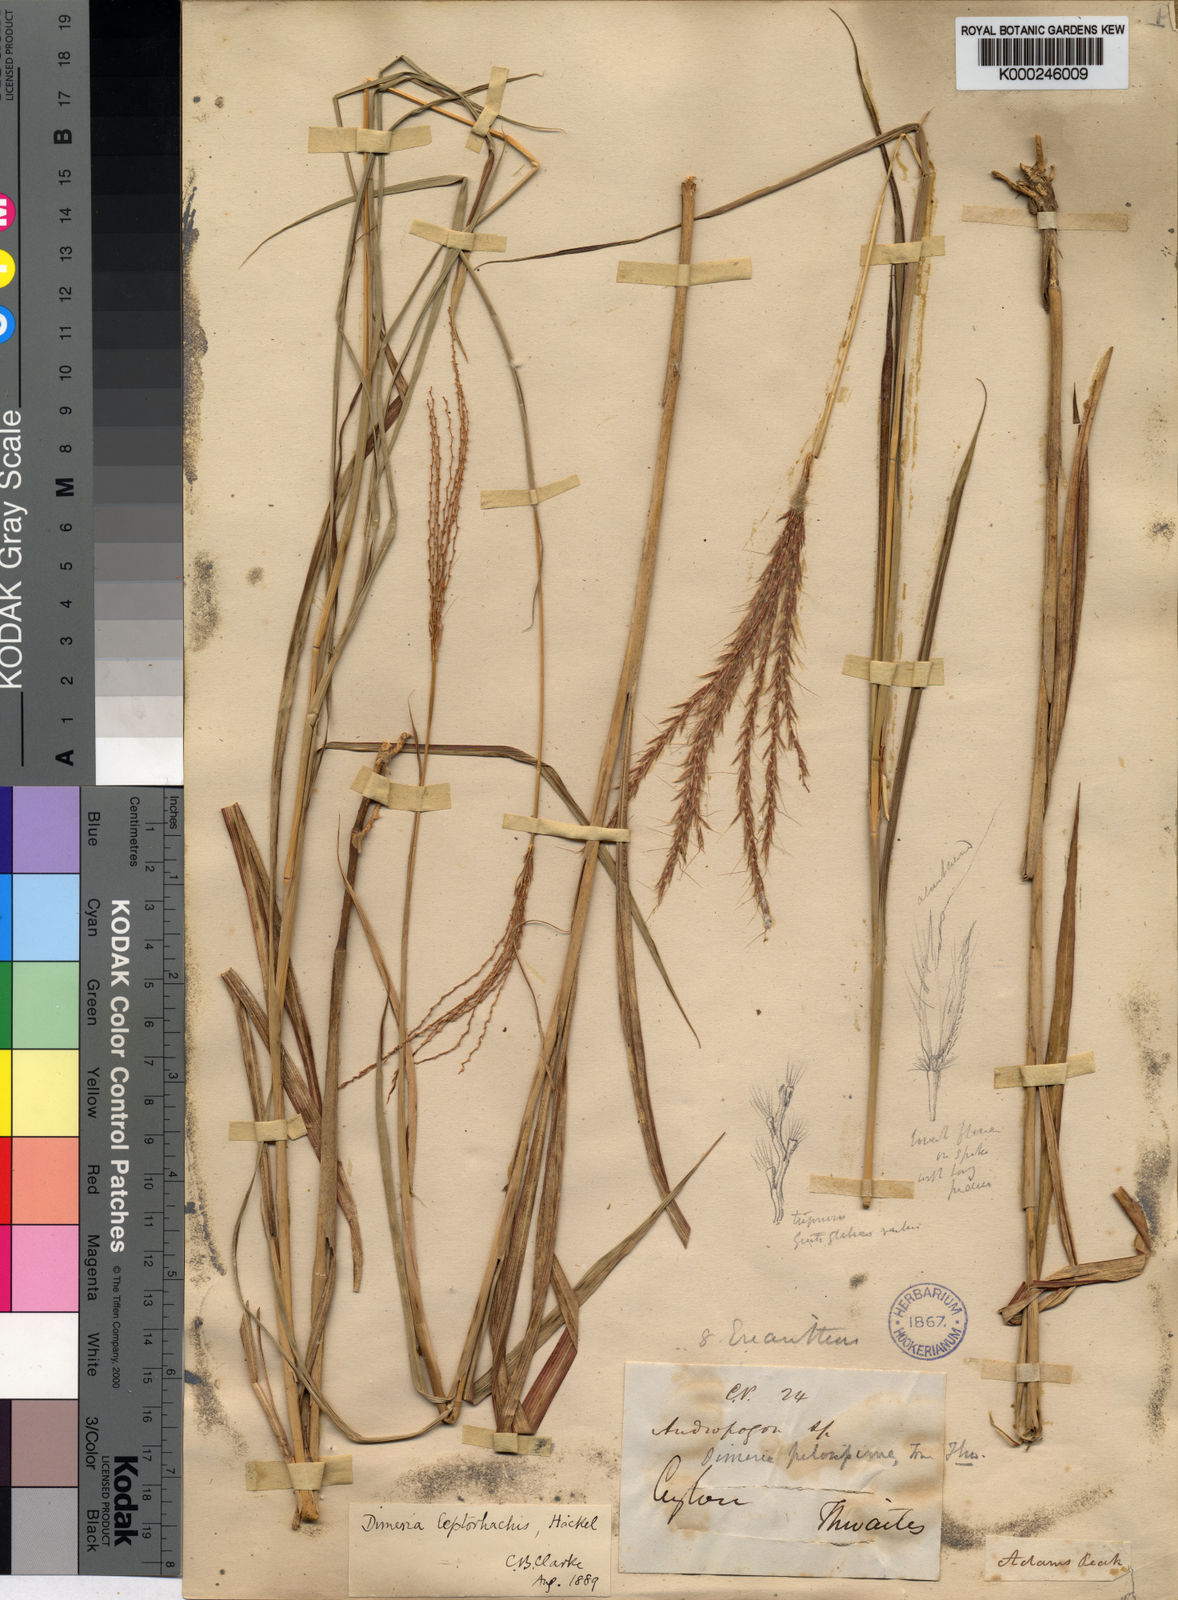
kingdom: Plantae
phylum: Tracheophyta
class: Liliopsida
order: Poales
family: Poaceae
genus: Dimeria
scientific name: Dimeria gracilis
